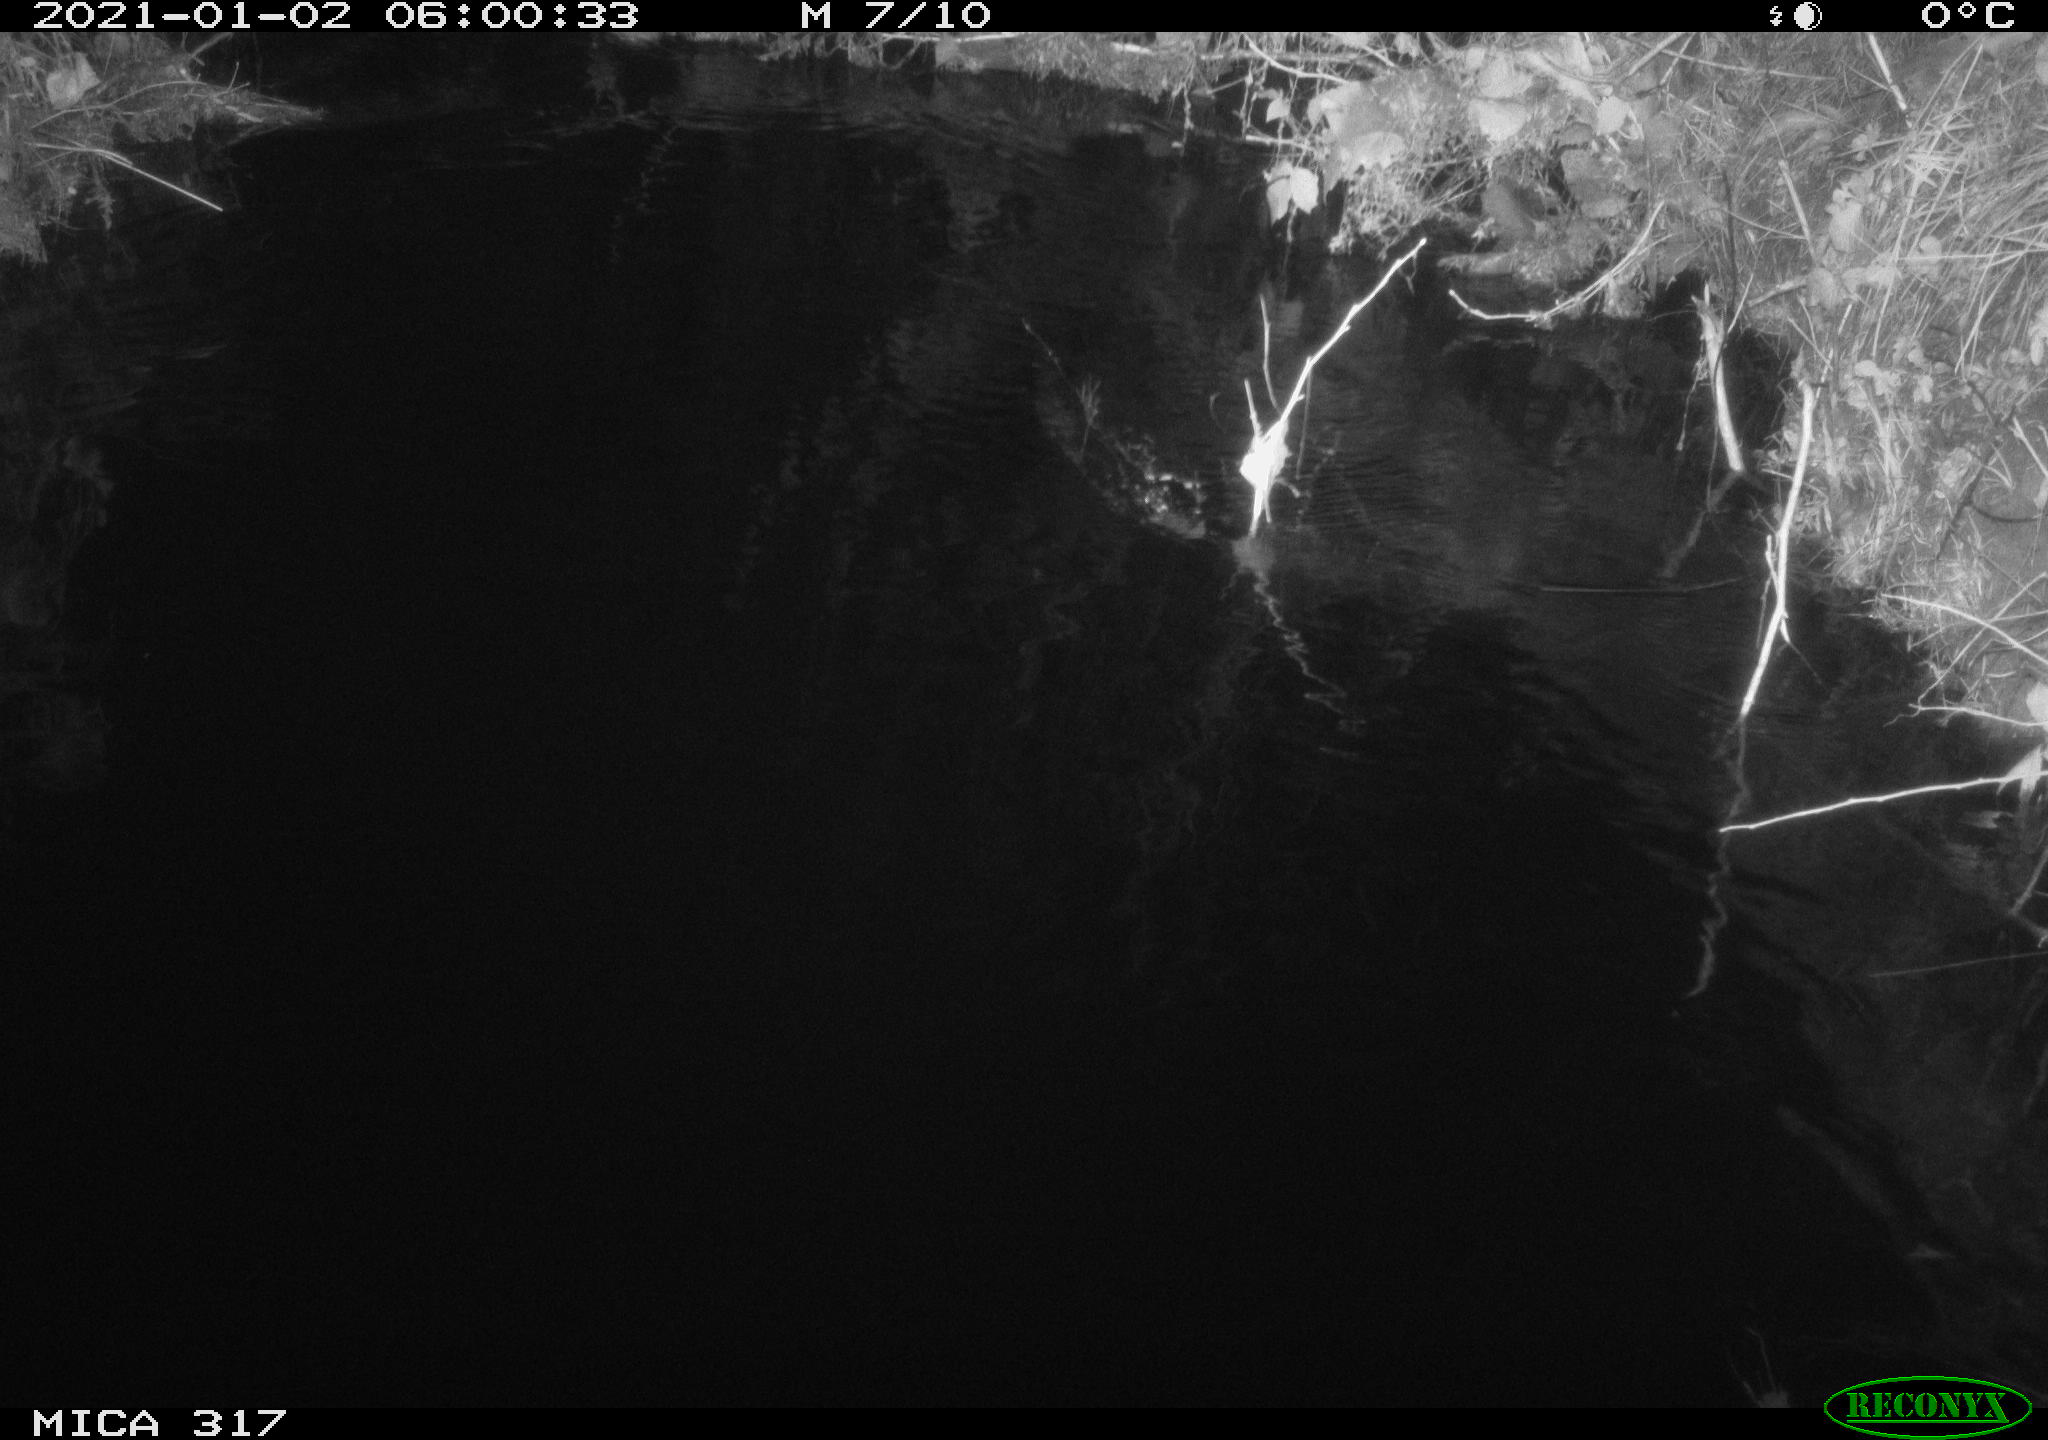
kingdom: Animalia
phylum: Chordata
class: Mammalia
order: Rodentia
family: Muridae
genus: Rattus
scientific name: Rattus norvegicus
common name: Brown rat
